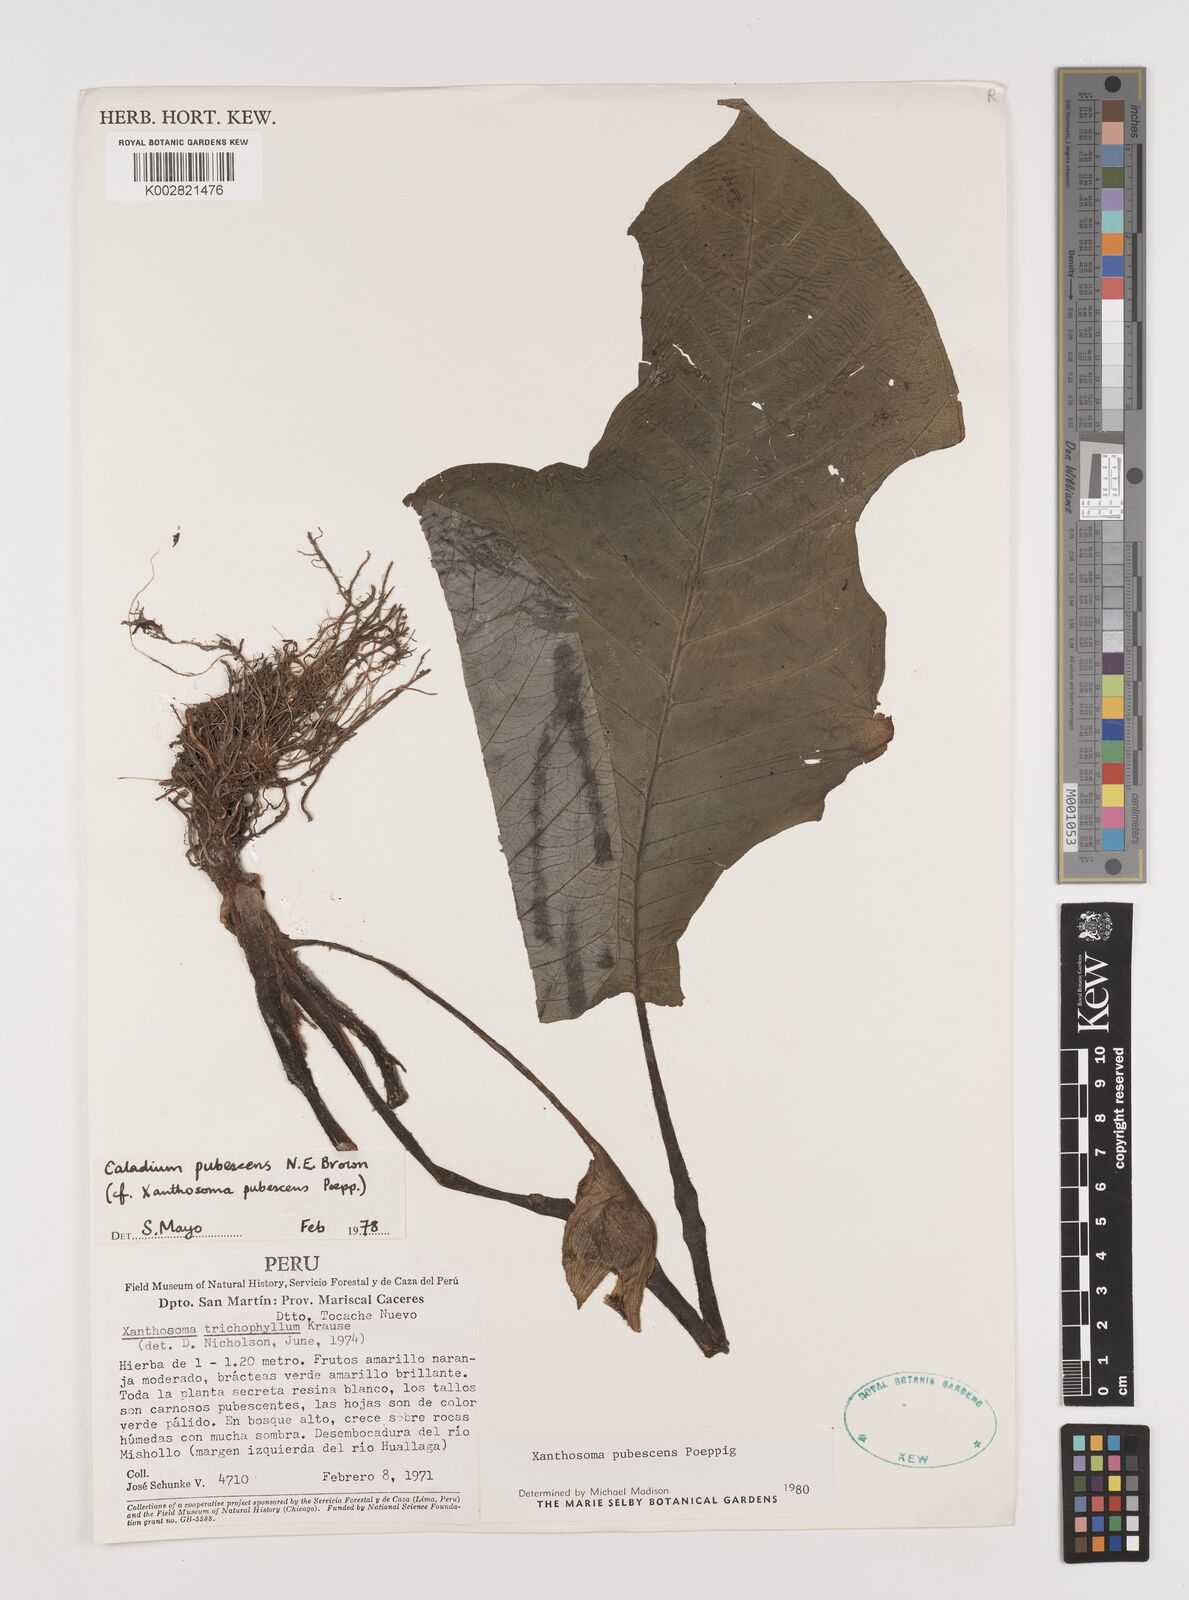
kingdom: Plantae
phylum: Tracheophyta
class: Liliopsida
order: Alismatales
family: Araceae
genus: Xanthosoma
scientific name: Xanthosoma pubescens
